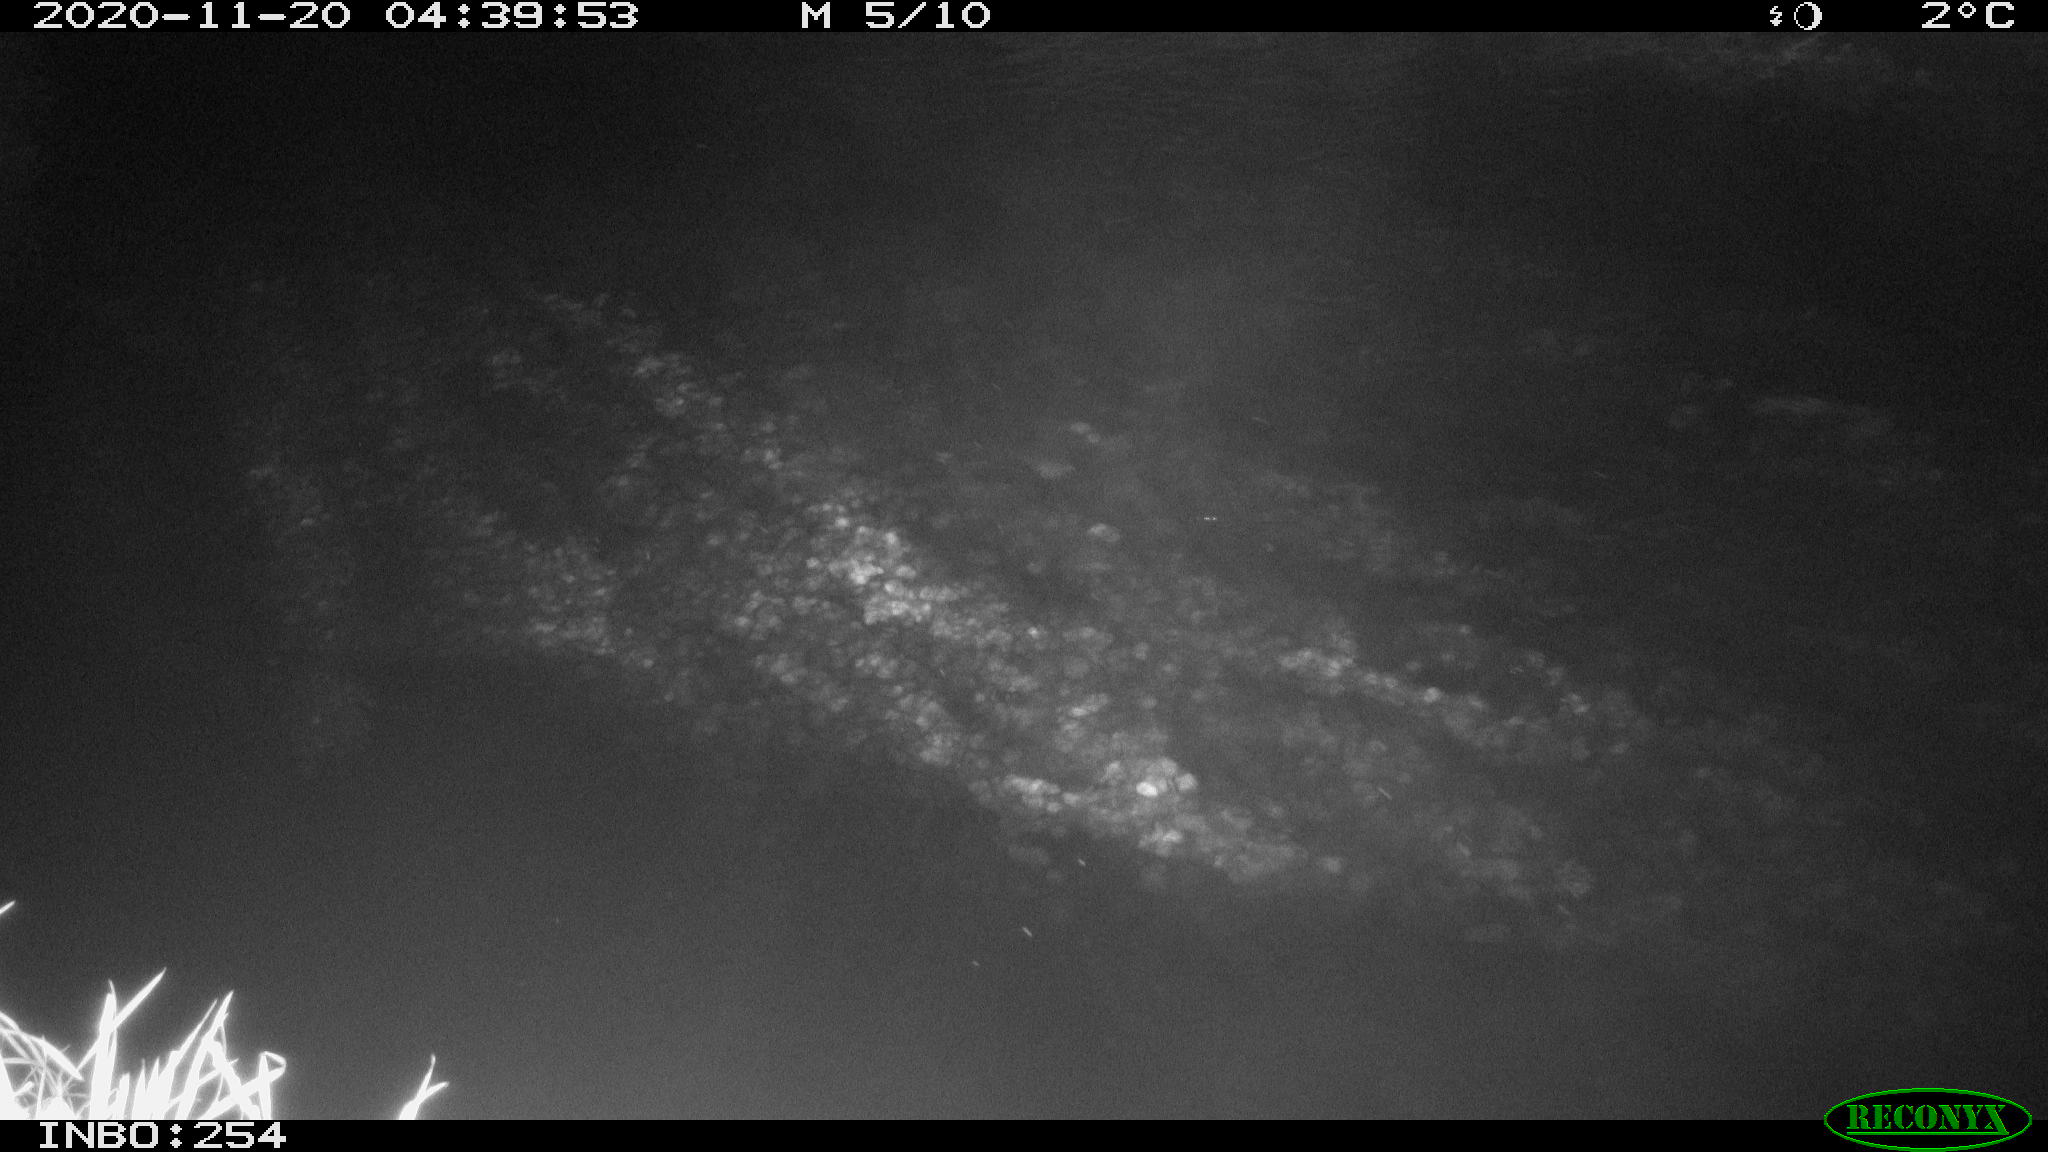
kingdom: Animalia
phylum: Chordata
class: Aves
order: Anseriformes
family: Anatidae
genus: Anas
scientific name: Anas platyrhynchos
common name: Mallard
